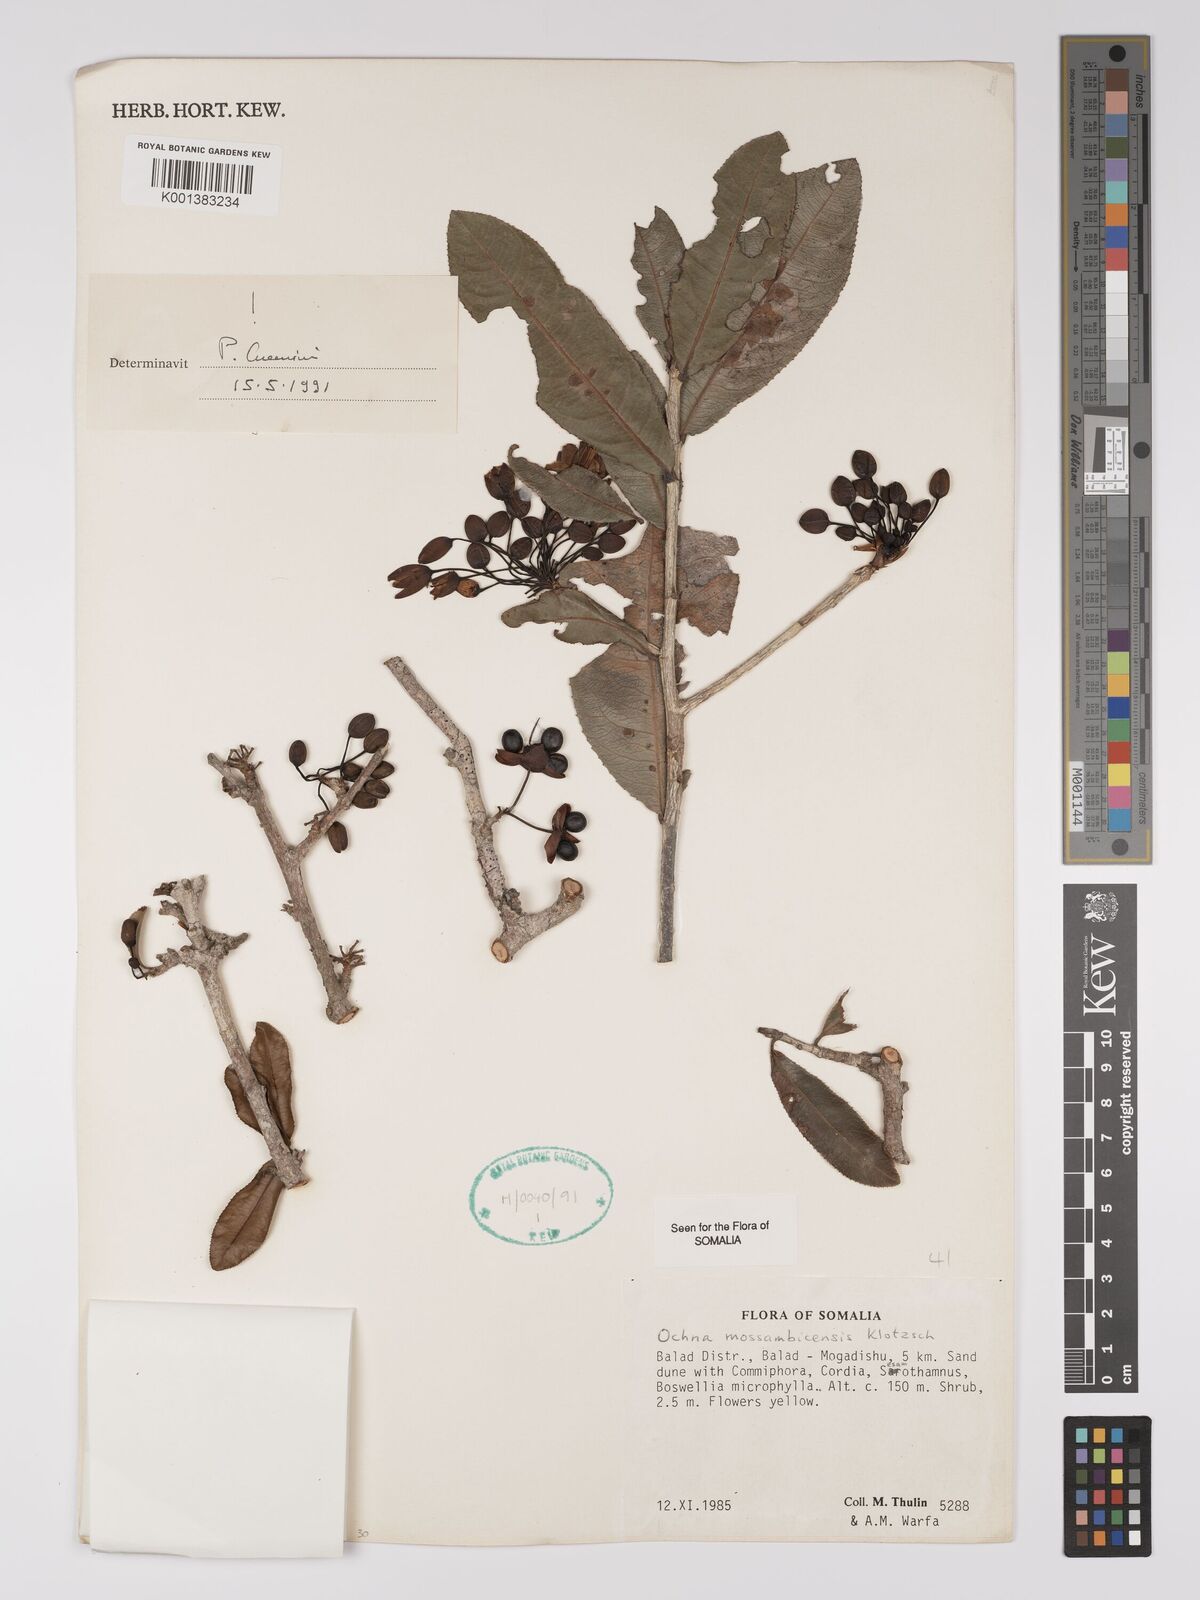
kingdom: Plantae
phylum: Tracheophyta
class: Magnoliopsida
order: Malpighiales
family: Ochnaceae
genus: Ochna
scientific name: Ochna atropurpurea
